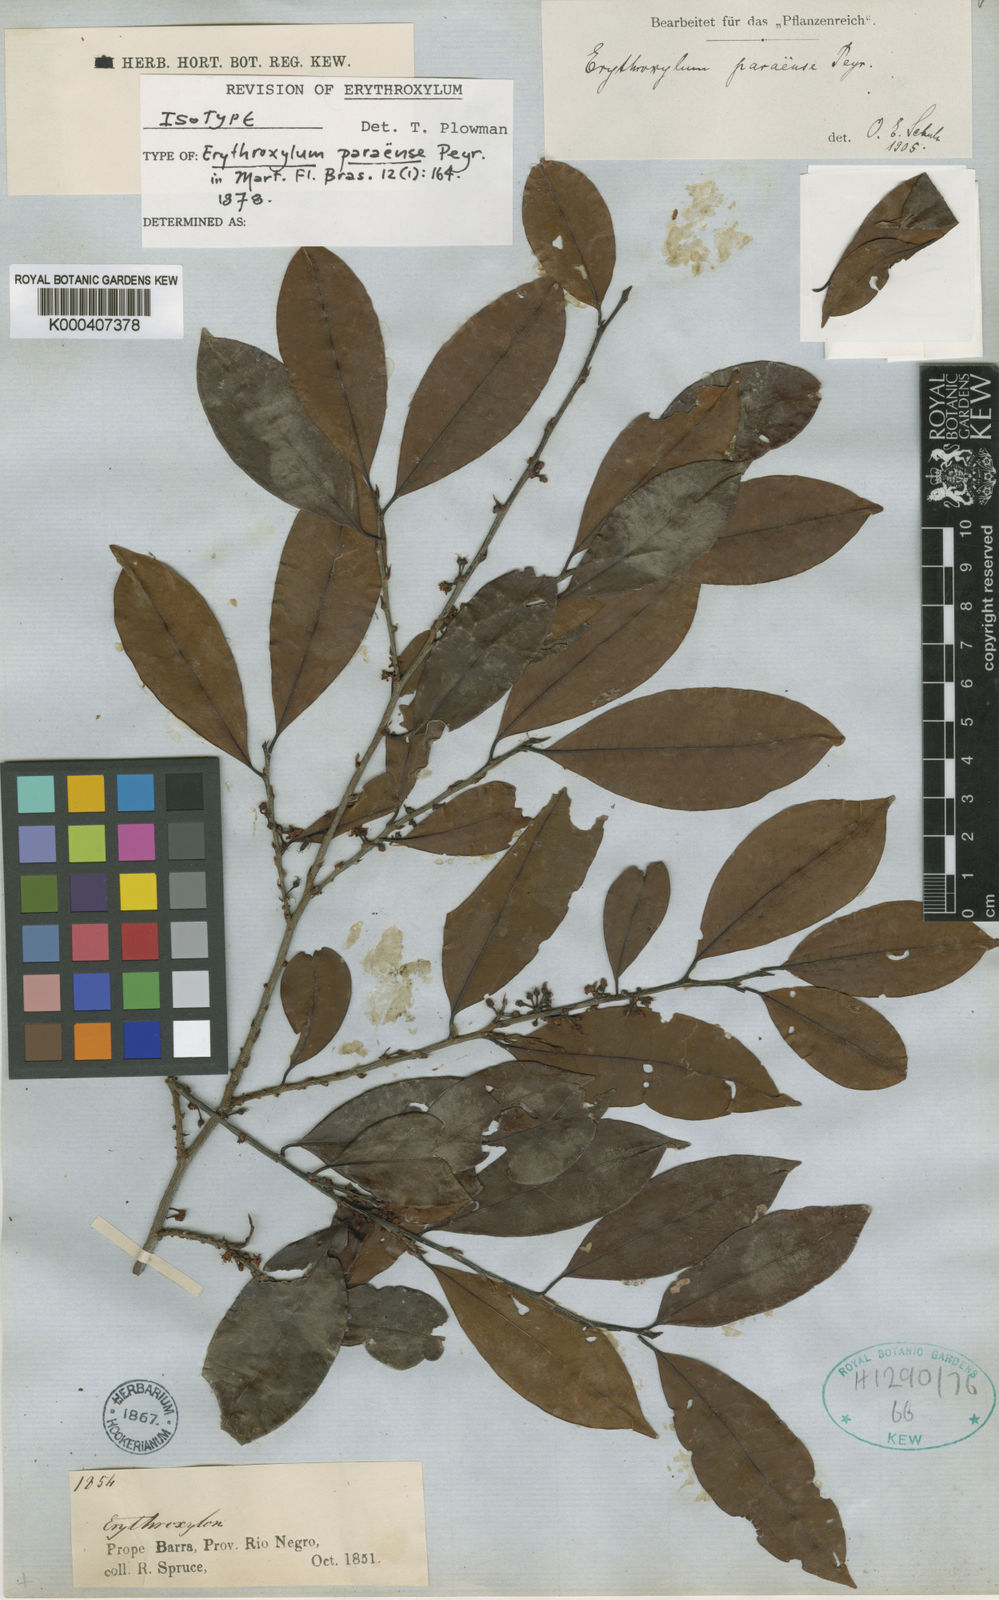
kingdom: Plantae
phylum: Tracheophyta
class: Magnoliopsida
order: Malpighiales
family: Erythroxylaceae
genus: Erythroxylum
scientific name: Erythroxylum citrifolium
